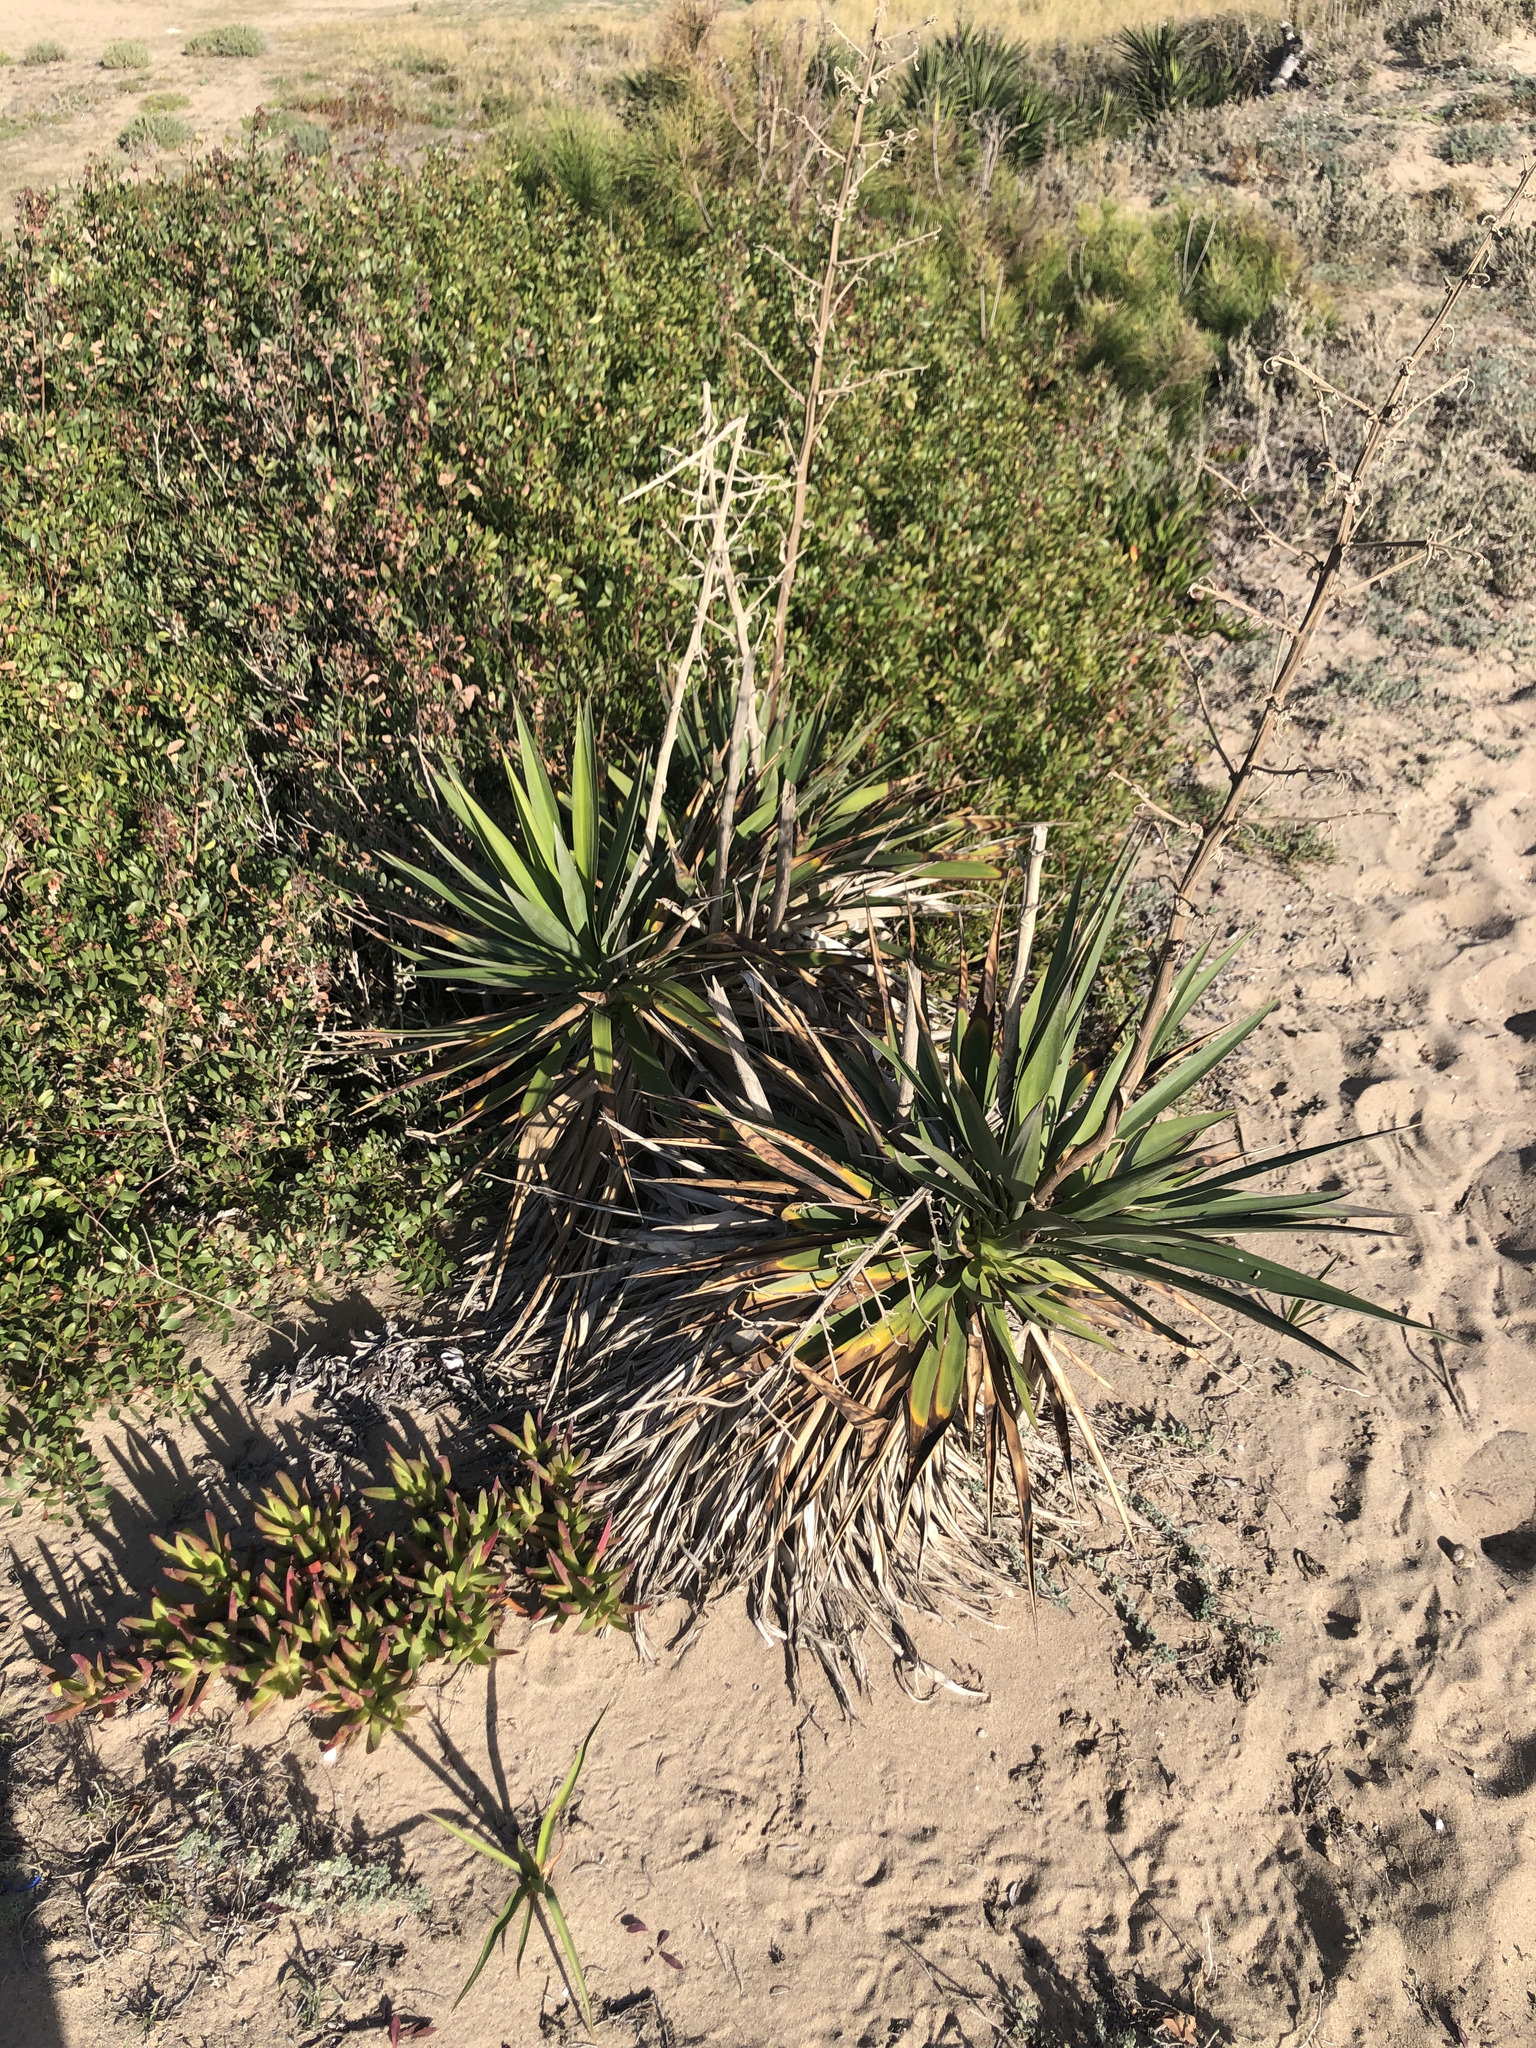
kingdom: Plantae
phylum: Tracheophyta
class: Liliopsida
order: Asparagales
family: Asparagaceae
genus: Yucca
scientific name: Yucca aloifolia
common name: Aloe yucca
